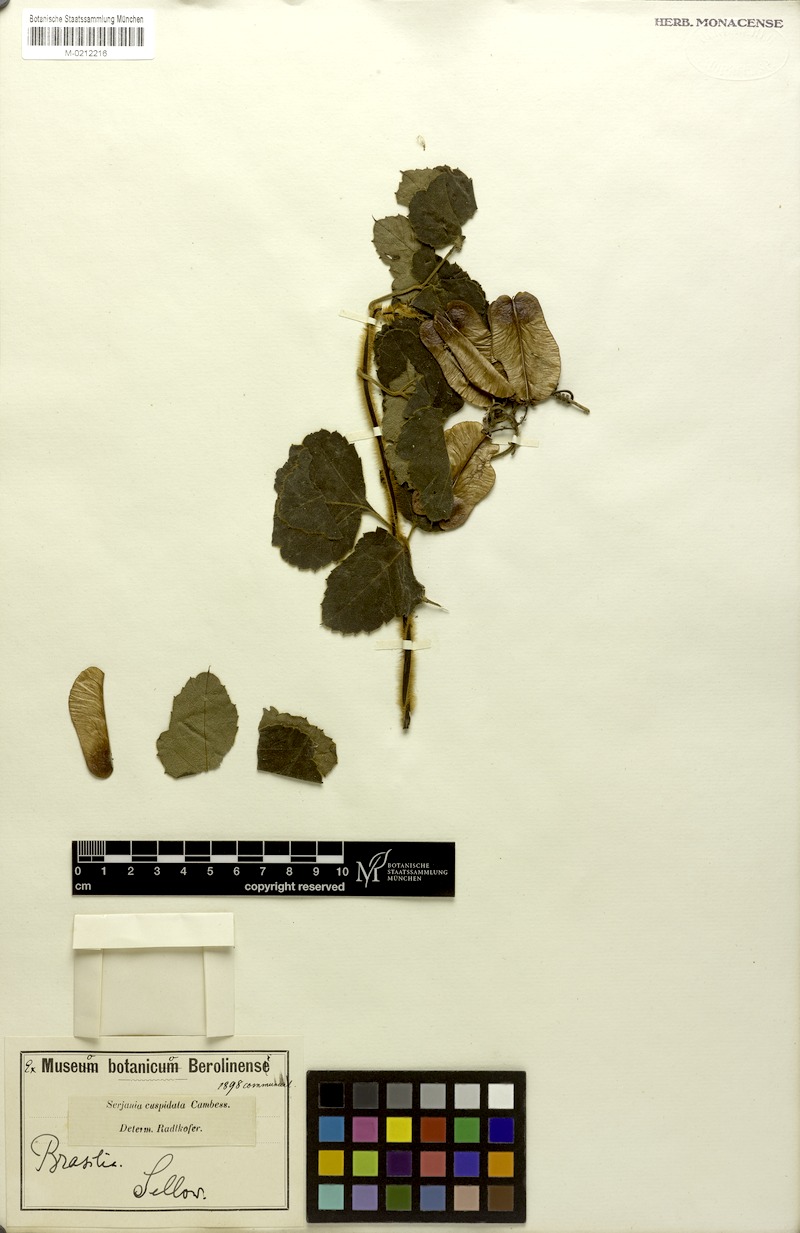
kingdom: Plantae
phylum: Tracheophyta
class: Magnoliopsida
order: Sapindales
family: Sapindaceae
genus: Serjania
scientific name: Serjania ferruginea
